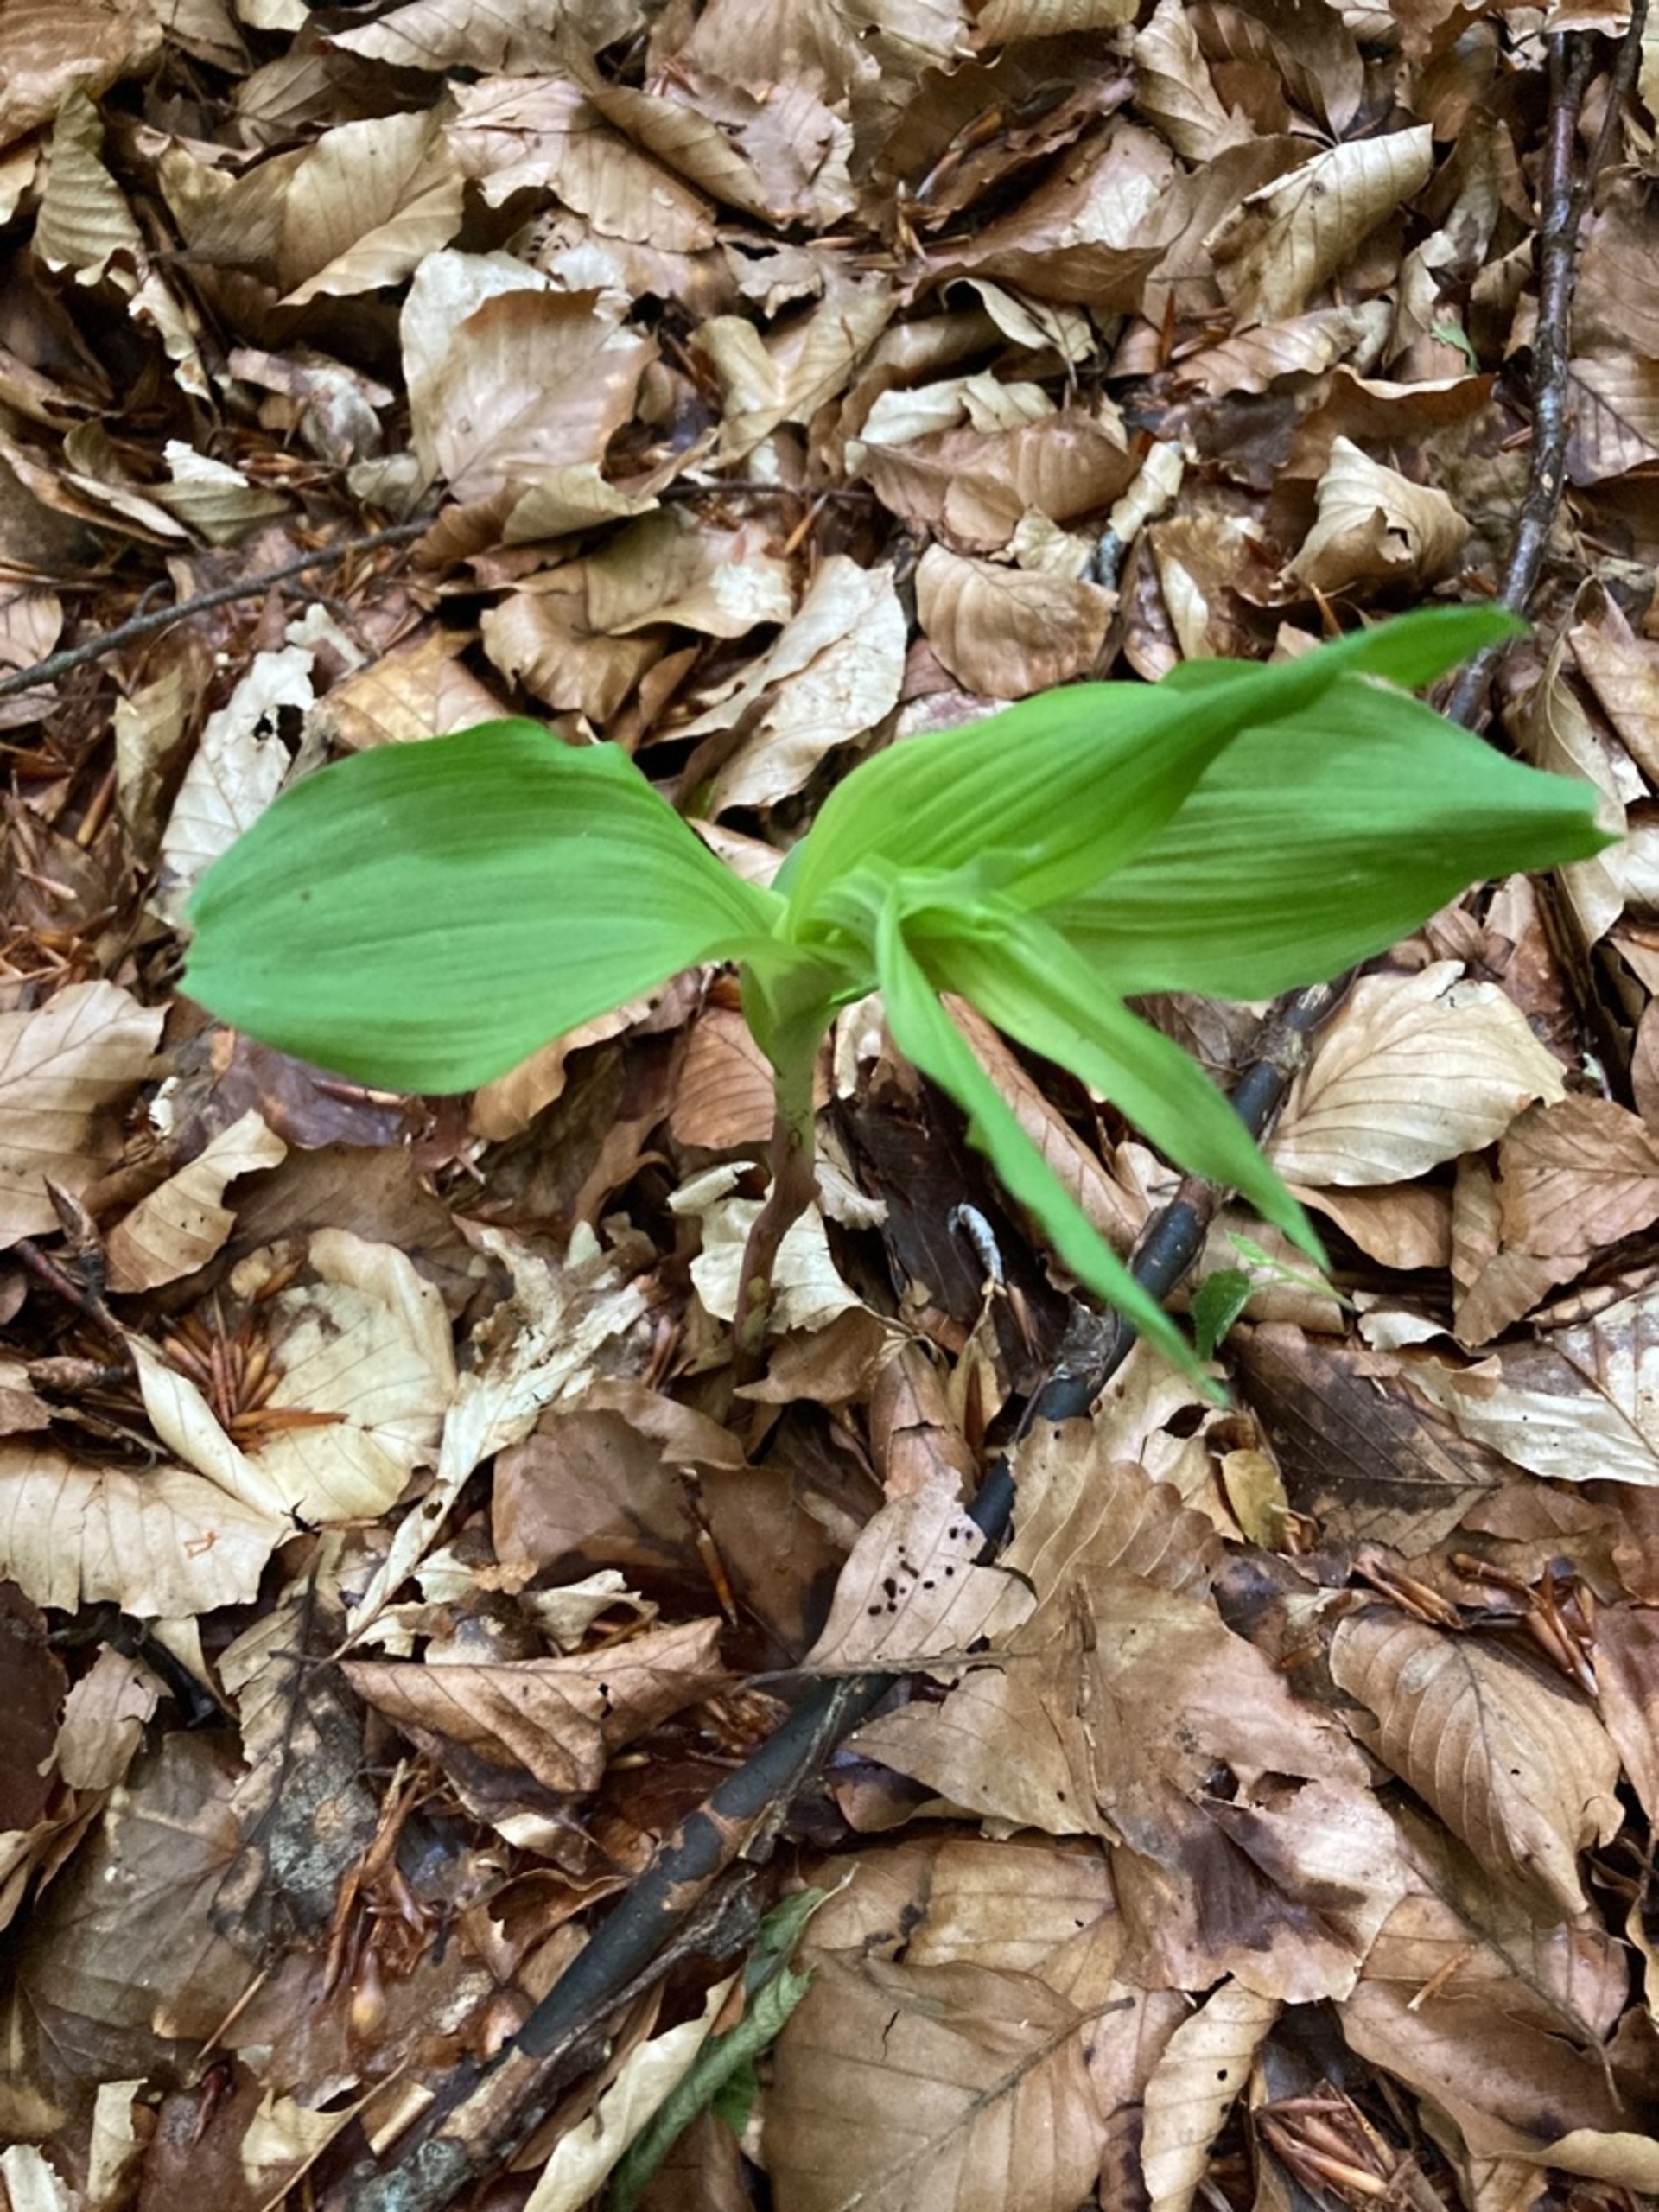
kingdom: Plantae
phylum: Tracheophyta
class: Liliopsida
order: Asparagales
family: Orchidaceae
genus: Epipactis
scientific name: Epipactis helleborine
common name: Skov-hullæbe
